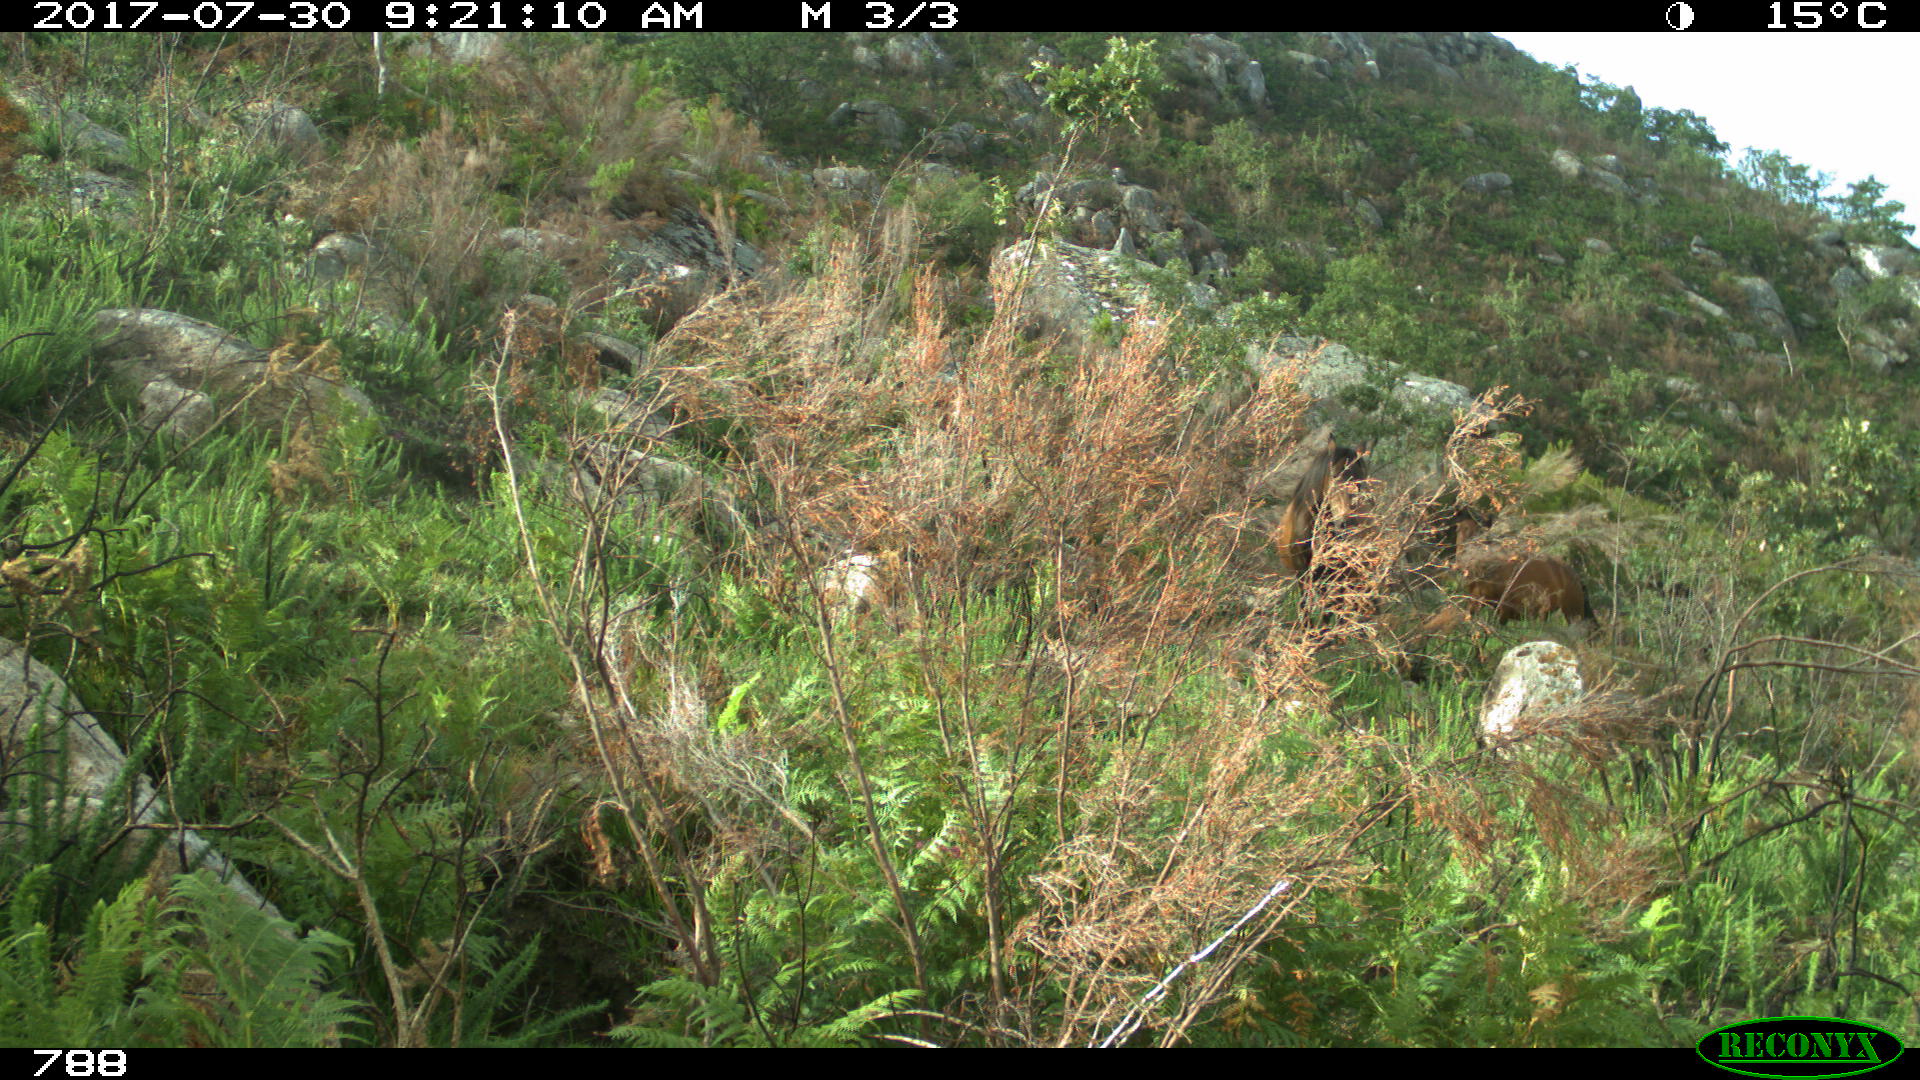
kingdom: Animalia
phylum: Chordata
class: Mammalia
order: Perissodactyla
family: Equidae
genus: Equus
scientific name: Equus caballus
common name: Horse
